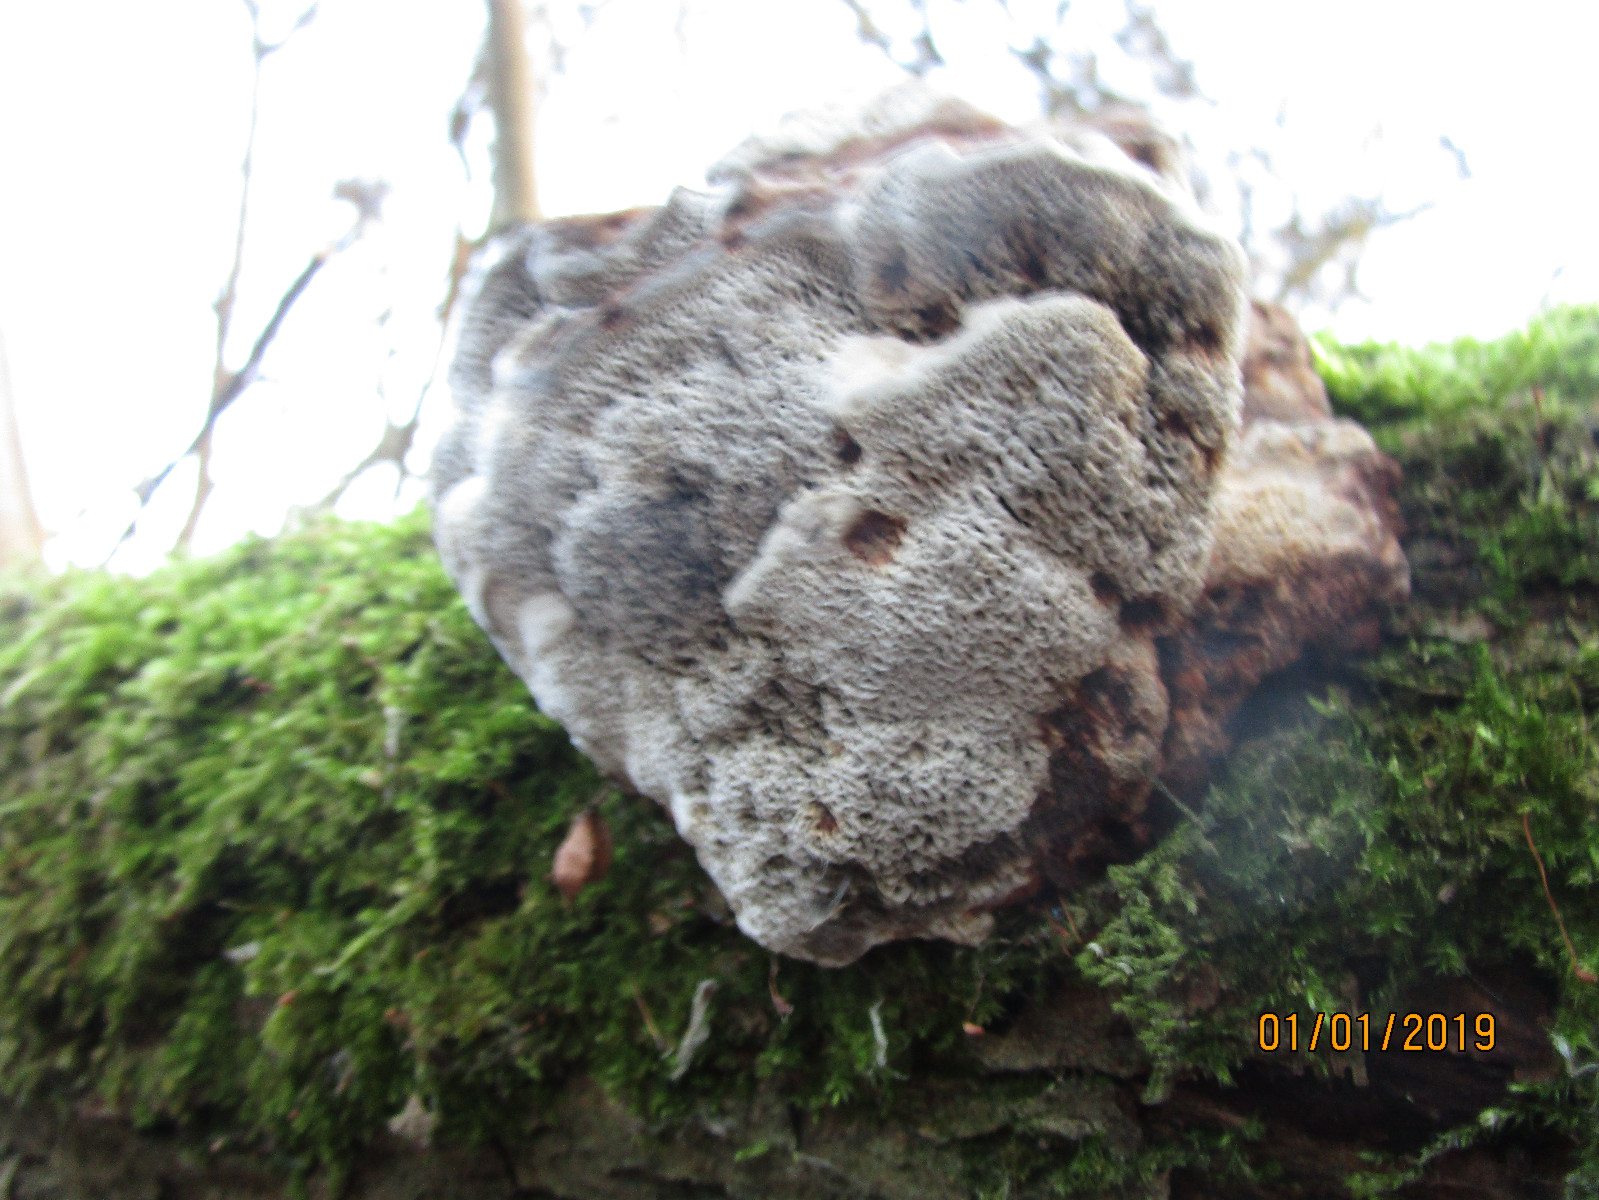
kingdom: Fungi
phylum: Basidiomycota
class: Agaricomycetes
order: Polyporales
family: Polyporaceae
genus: Daedaleopsis
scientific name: Daedaleopsis confragosa
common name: rødmende læderporesvamp
